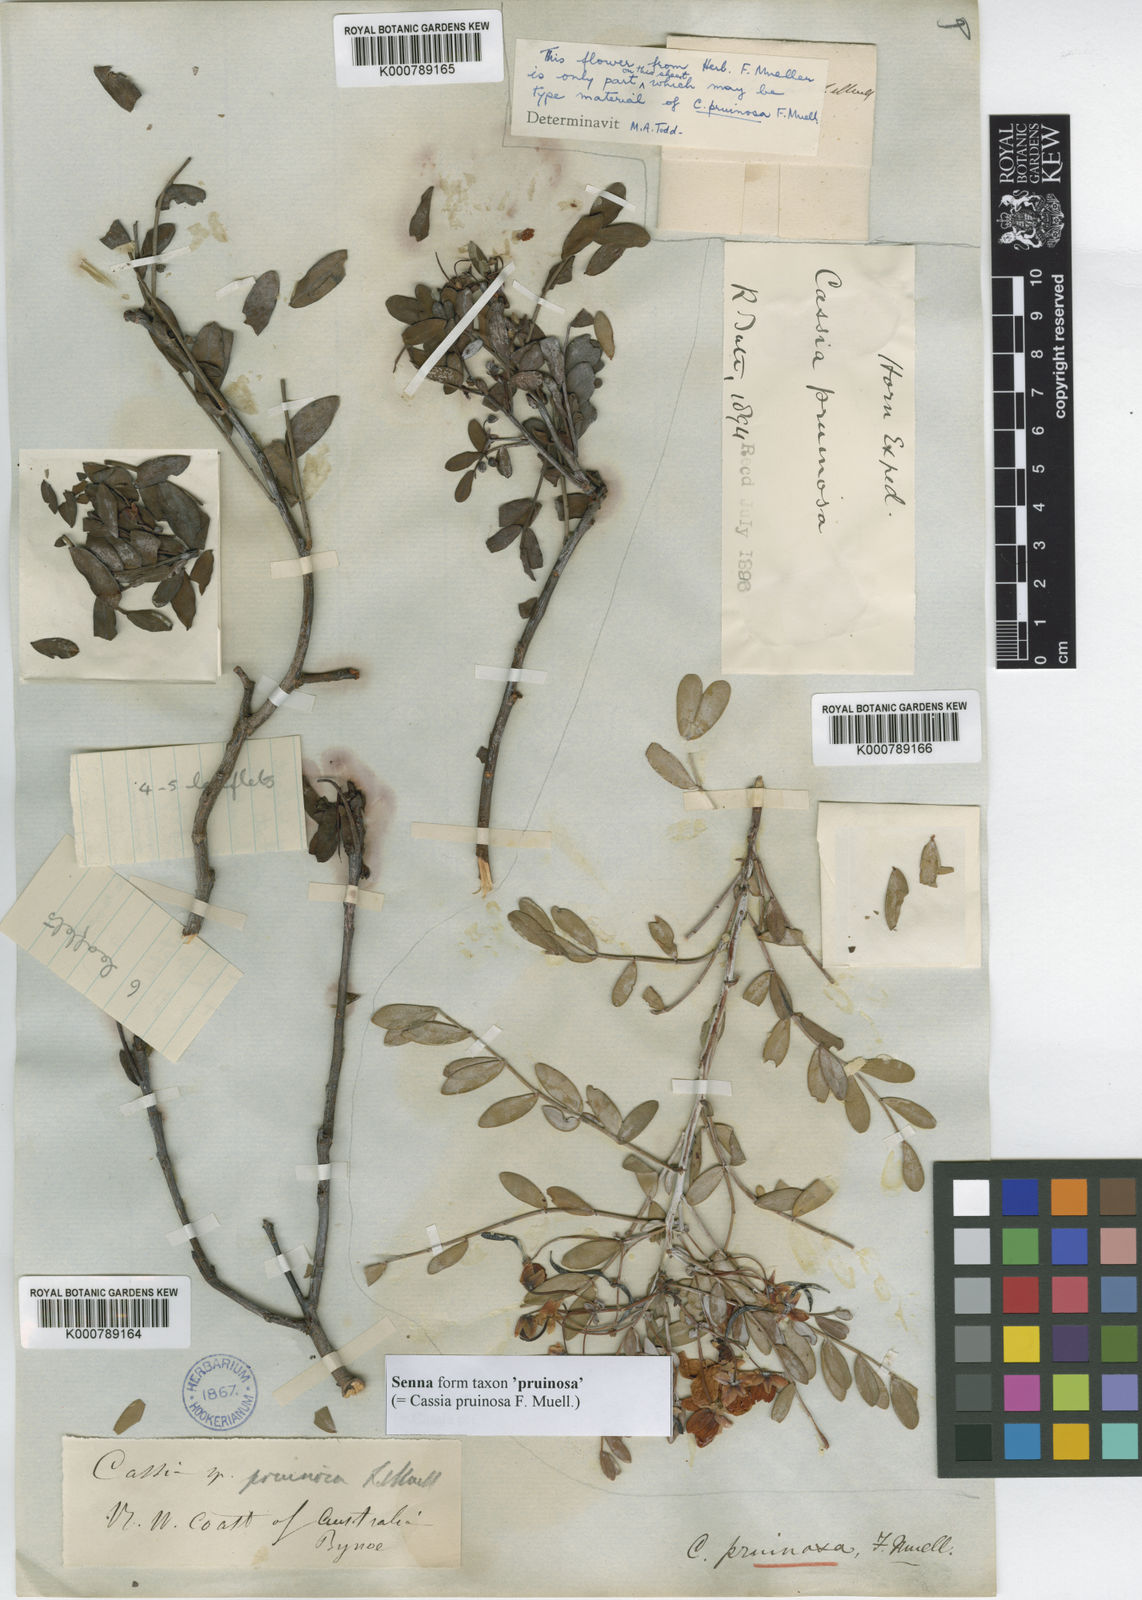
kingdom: Plantae
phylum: Tracheophyta
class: Magnoliopsida
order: Fabales
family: Fabaceae
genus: Senna
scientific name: Senna
